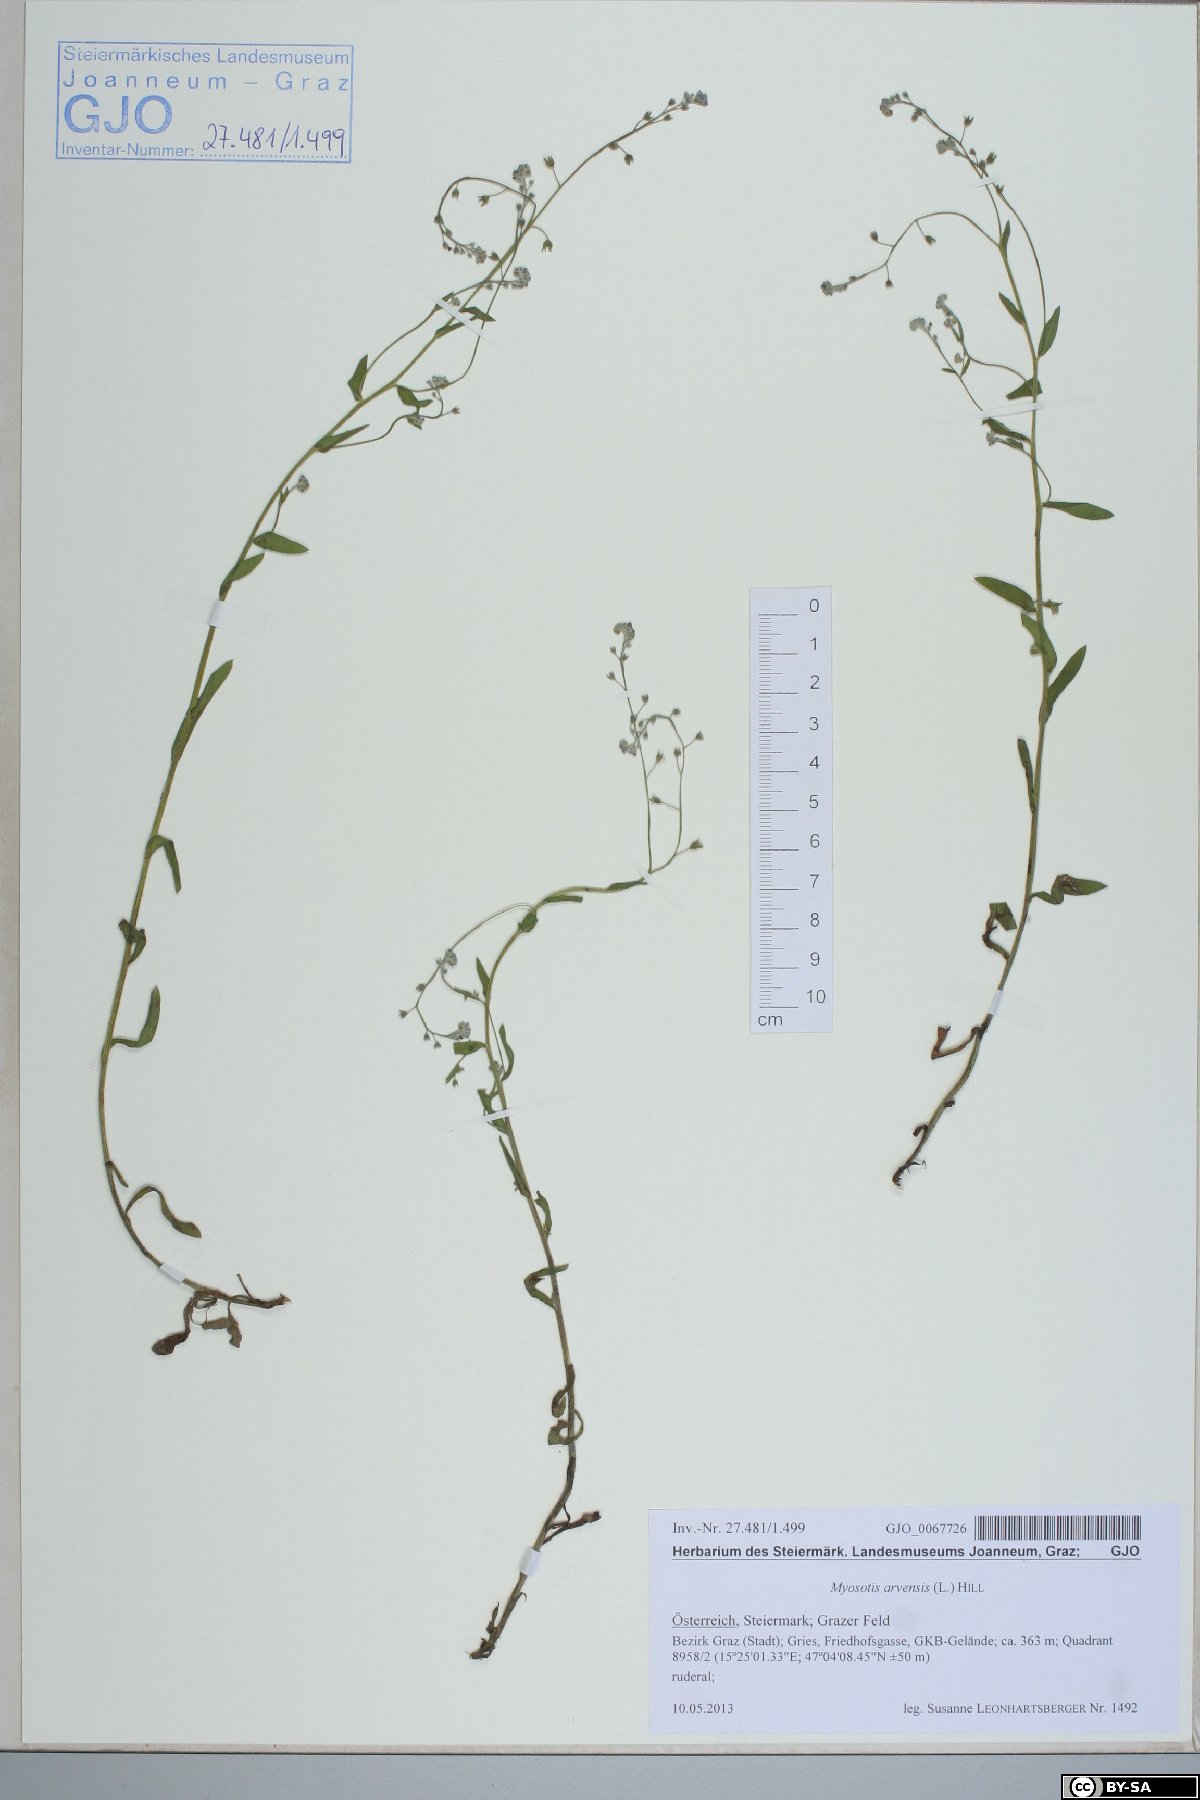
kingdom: Plantae
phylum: Tracheophyta
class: Magnoliopsida
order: Boraginales
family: Boraginaceae
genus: Myosotis
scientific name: Myosotis arvensis
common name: Field forget-me-not
